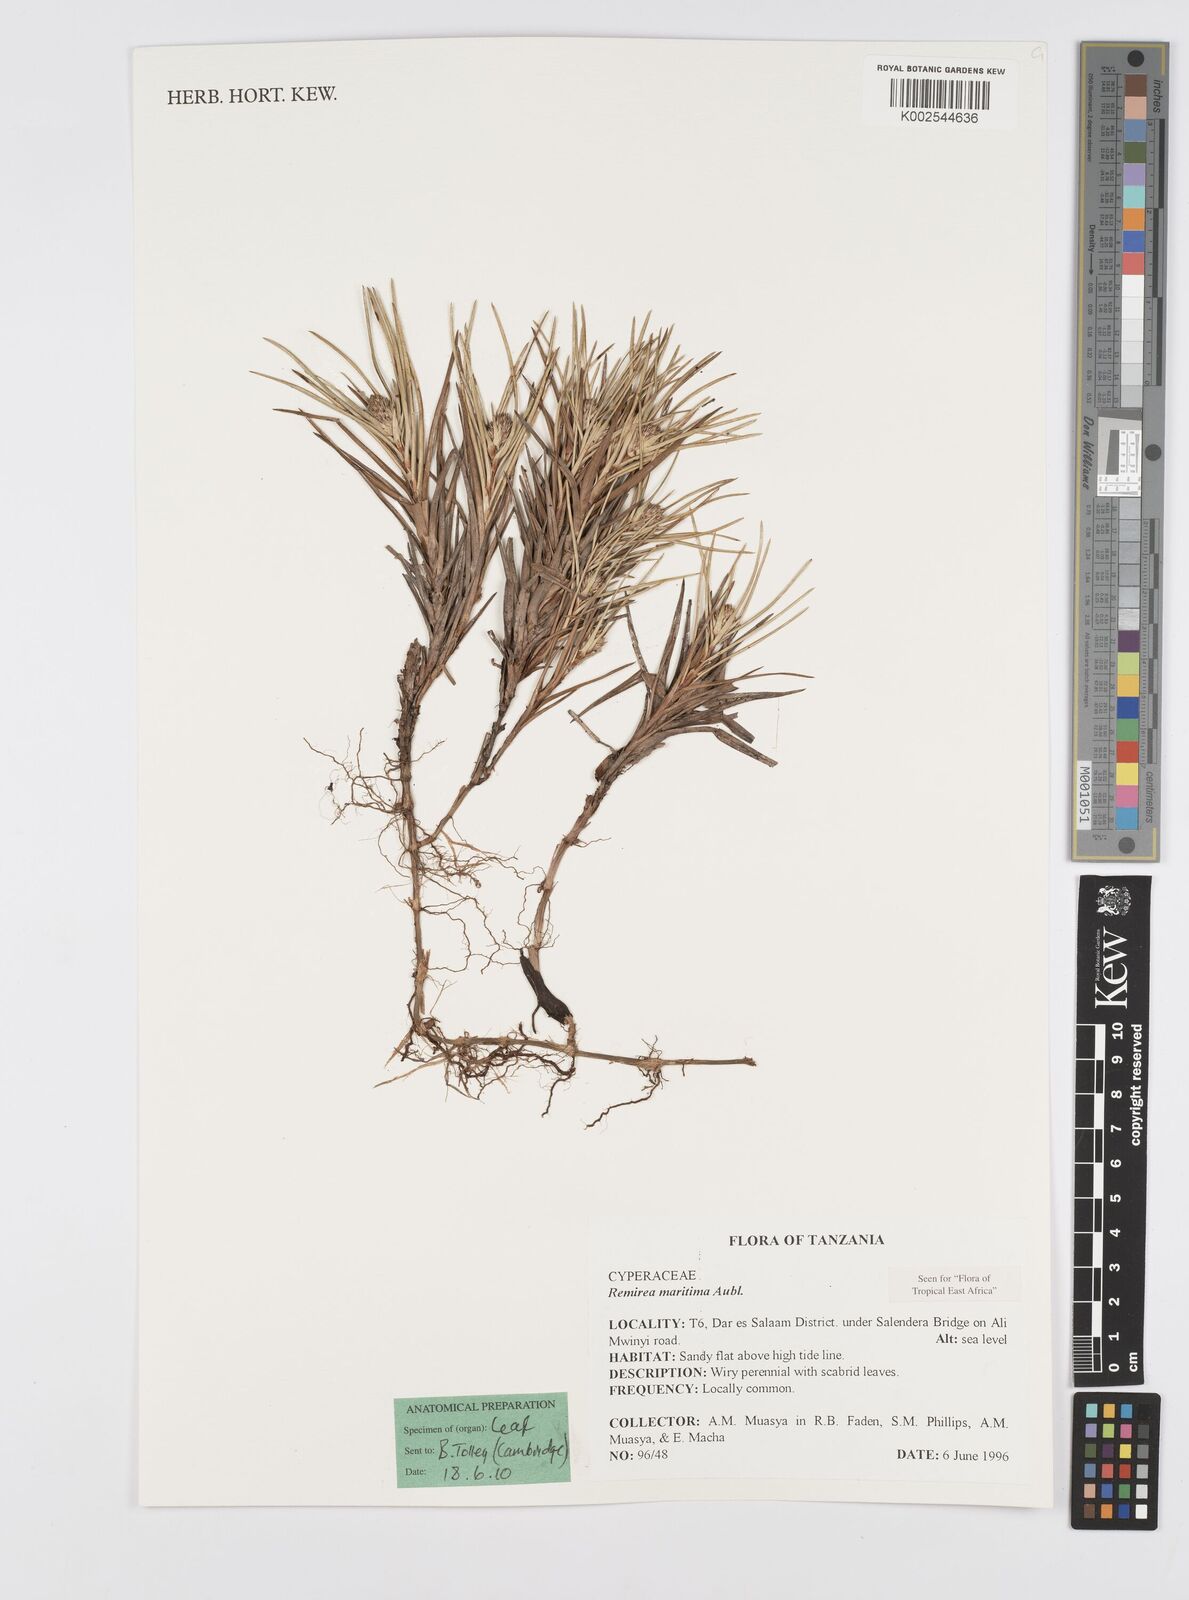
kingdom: Plantae
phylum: Tracheophyta
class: Liliopsida
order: Poales
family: Cyperaceae
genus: Cyperus
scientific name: Cyperus
